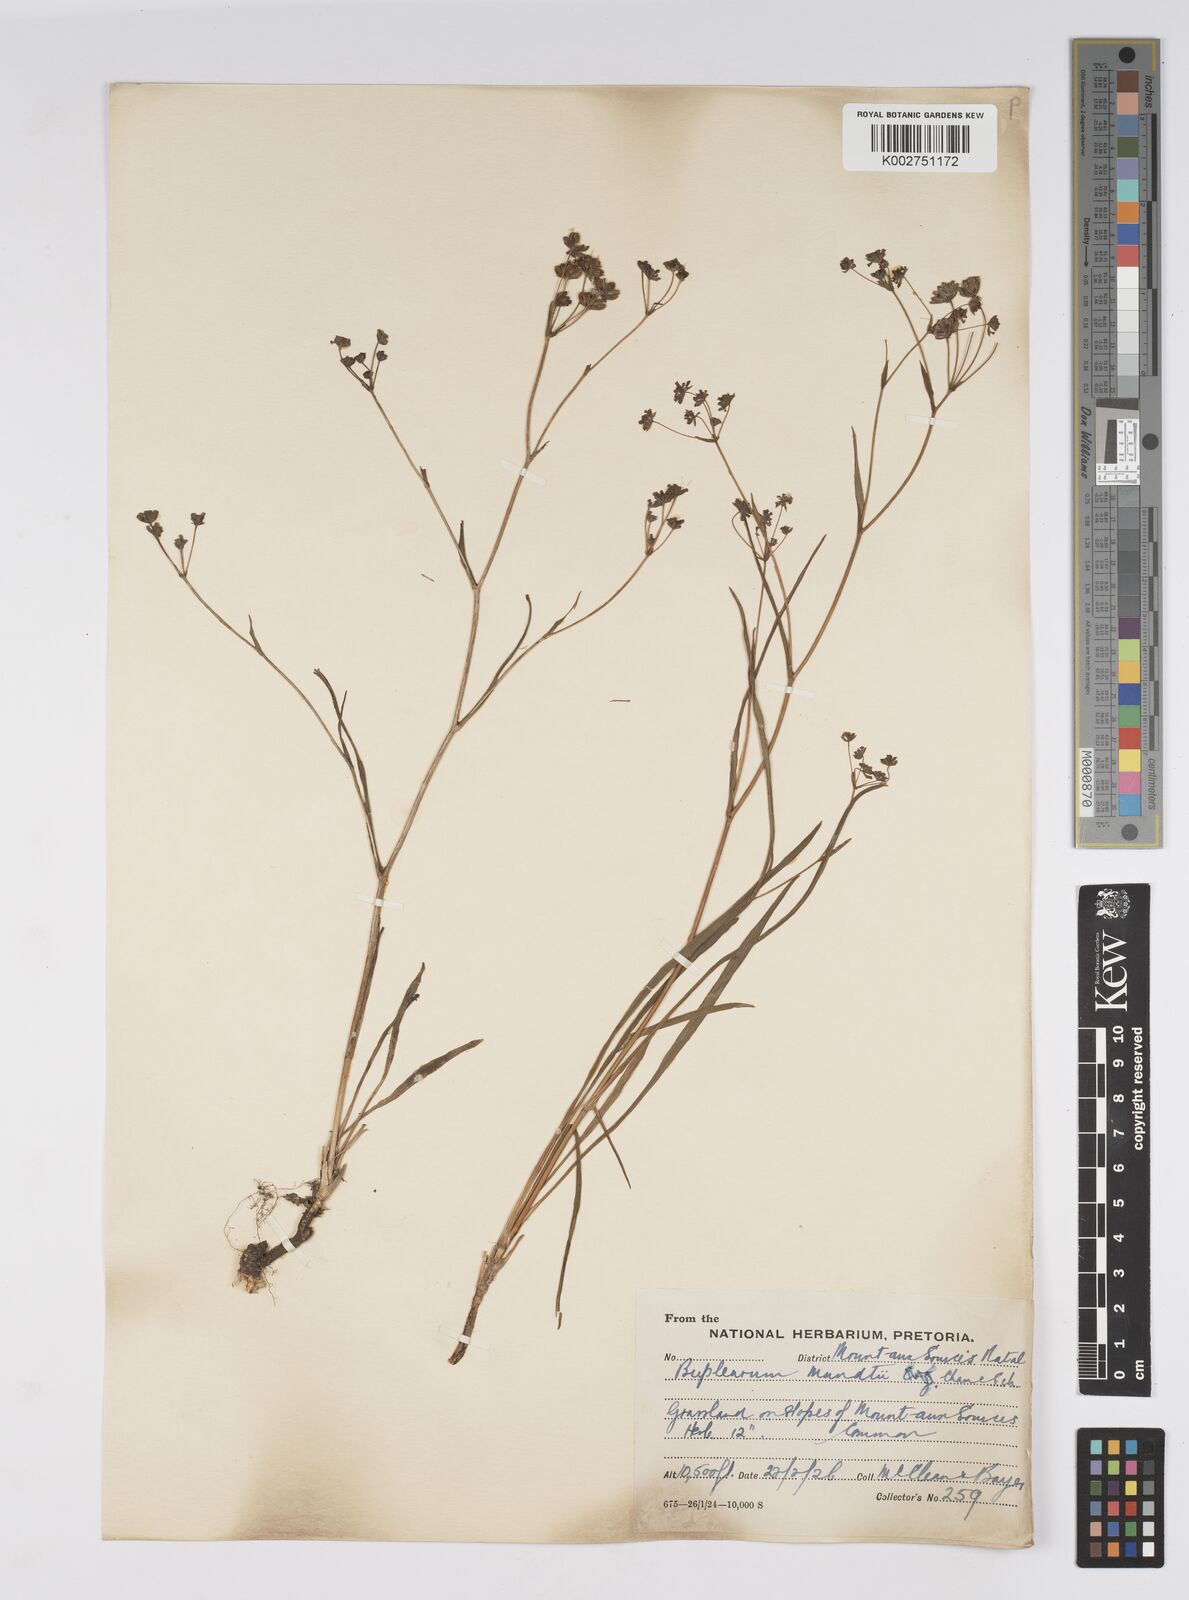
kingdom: Plantae
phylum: Tracheophyta
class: Magnoliopsida
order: Apiales
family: Apiaceae
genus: Bupleurum
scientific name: Bupleurum mundii
